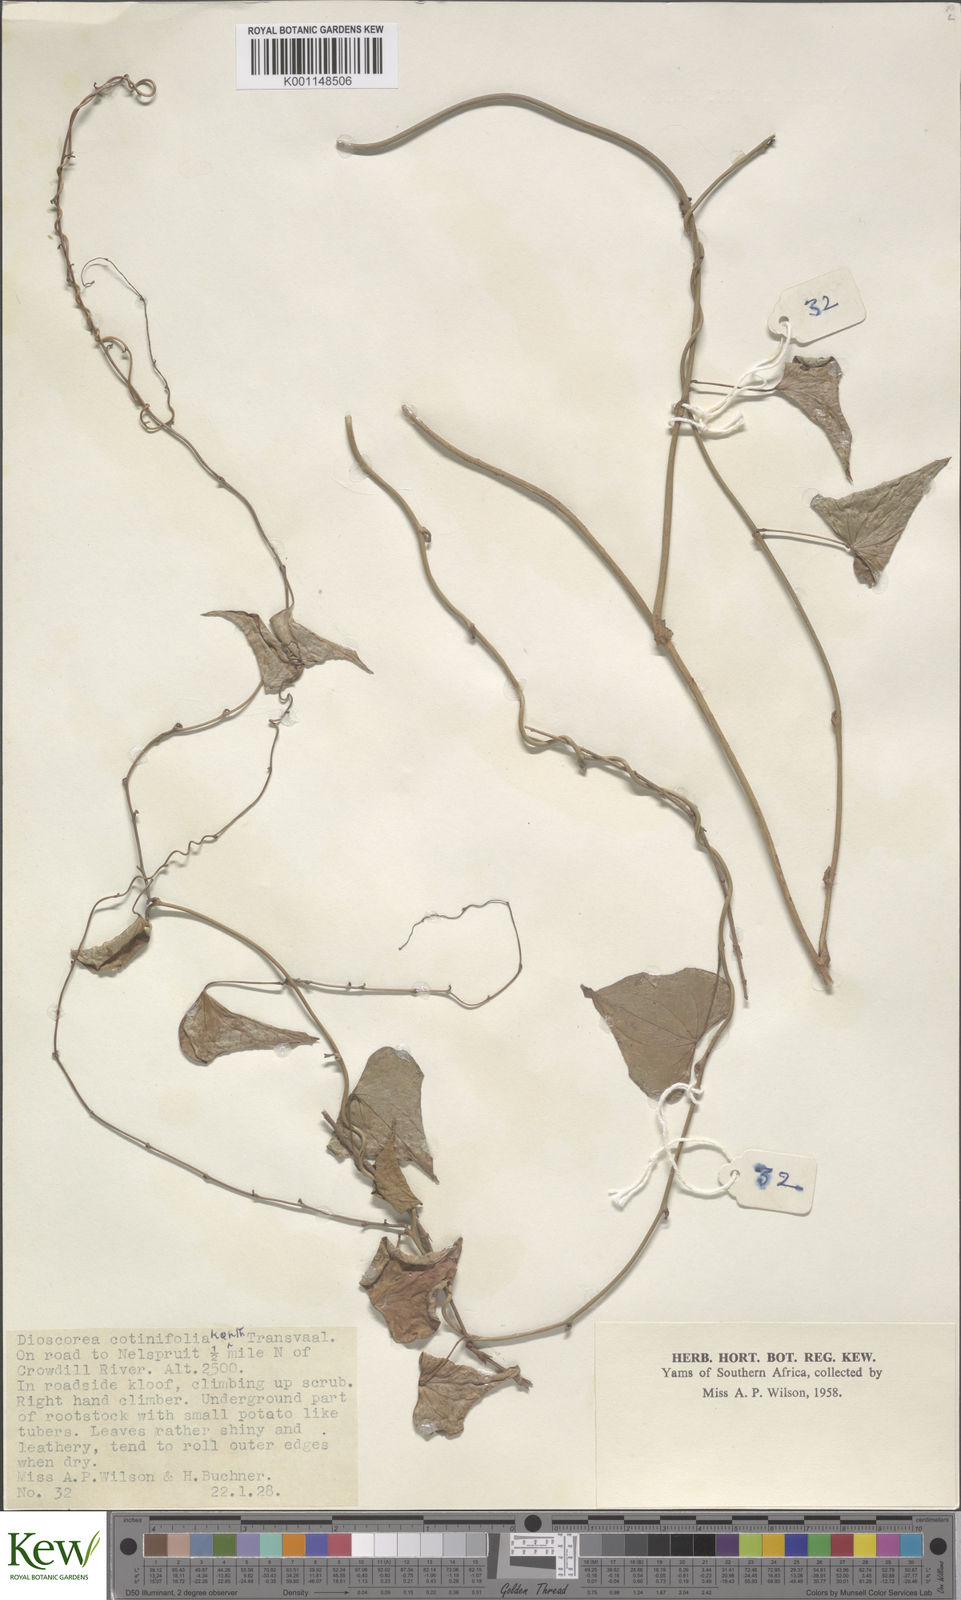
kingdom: Plantae
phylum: Tracheophyta
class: Liliopsida
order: Dioscoreales
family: Dioscoreaceae
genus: Dioscorea
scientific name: Dioscorea cotinifolia
